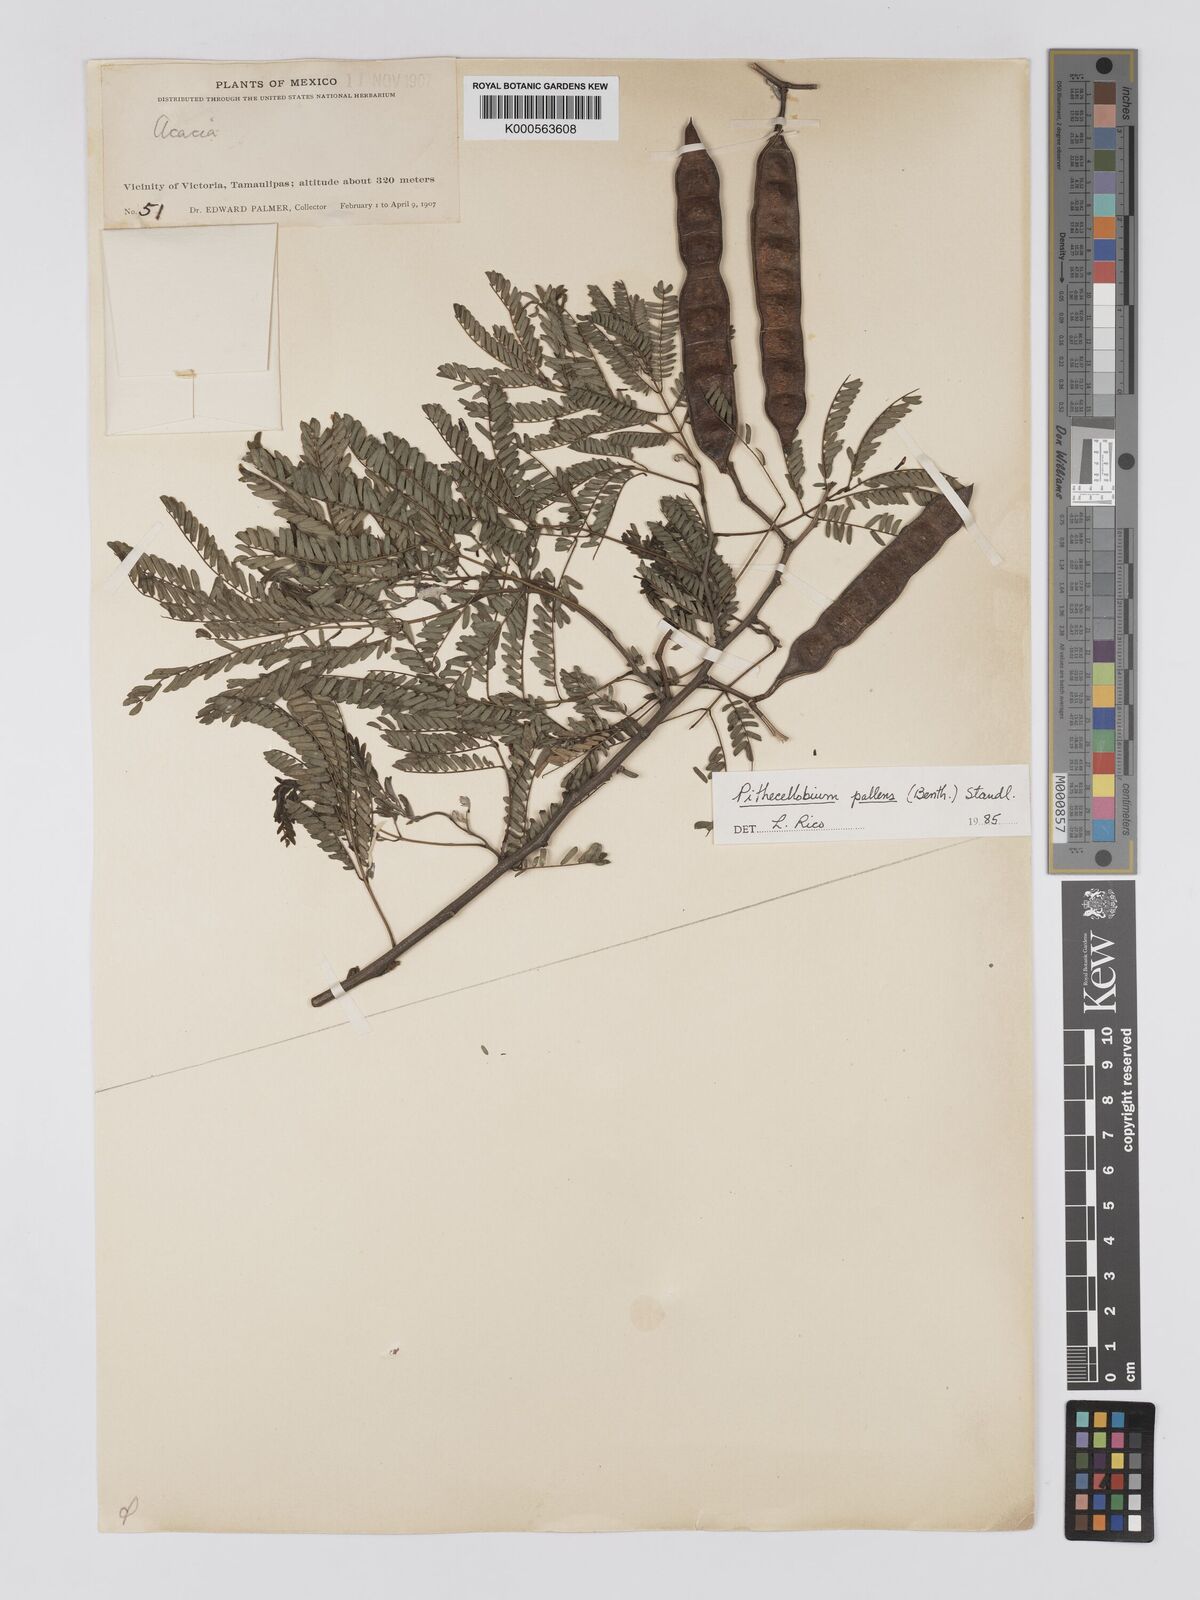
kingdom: Plantae
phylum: Tracheophyta
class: Magnoliopsida
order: Fabales
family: Fabaceae
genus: Havardia
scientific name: Havardia pallens
